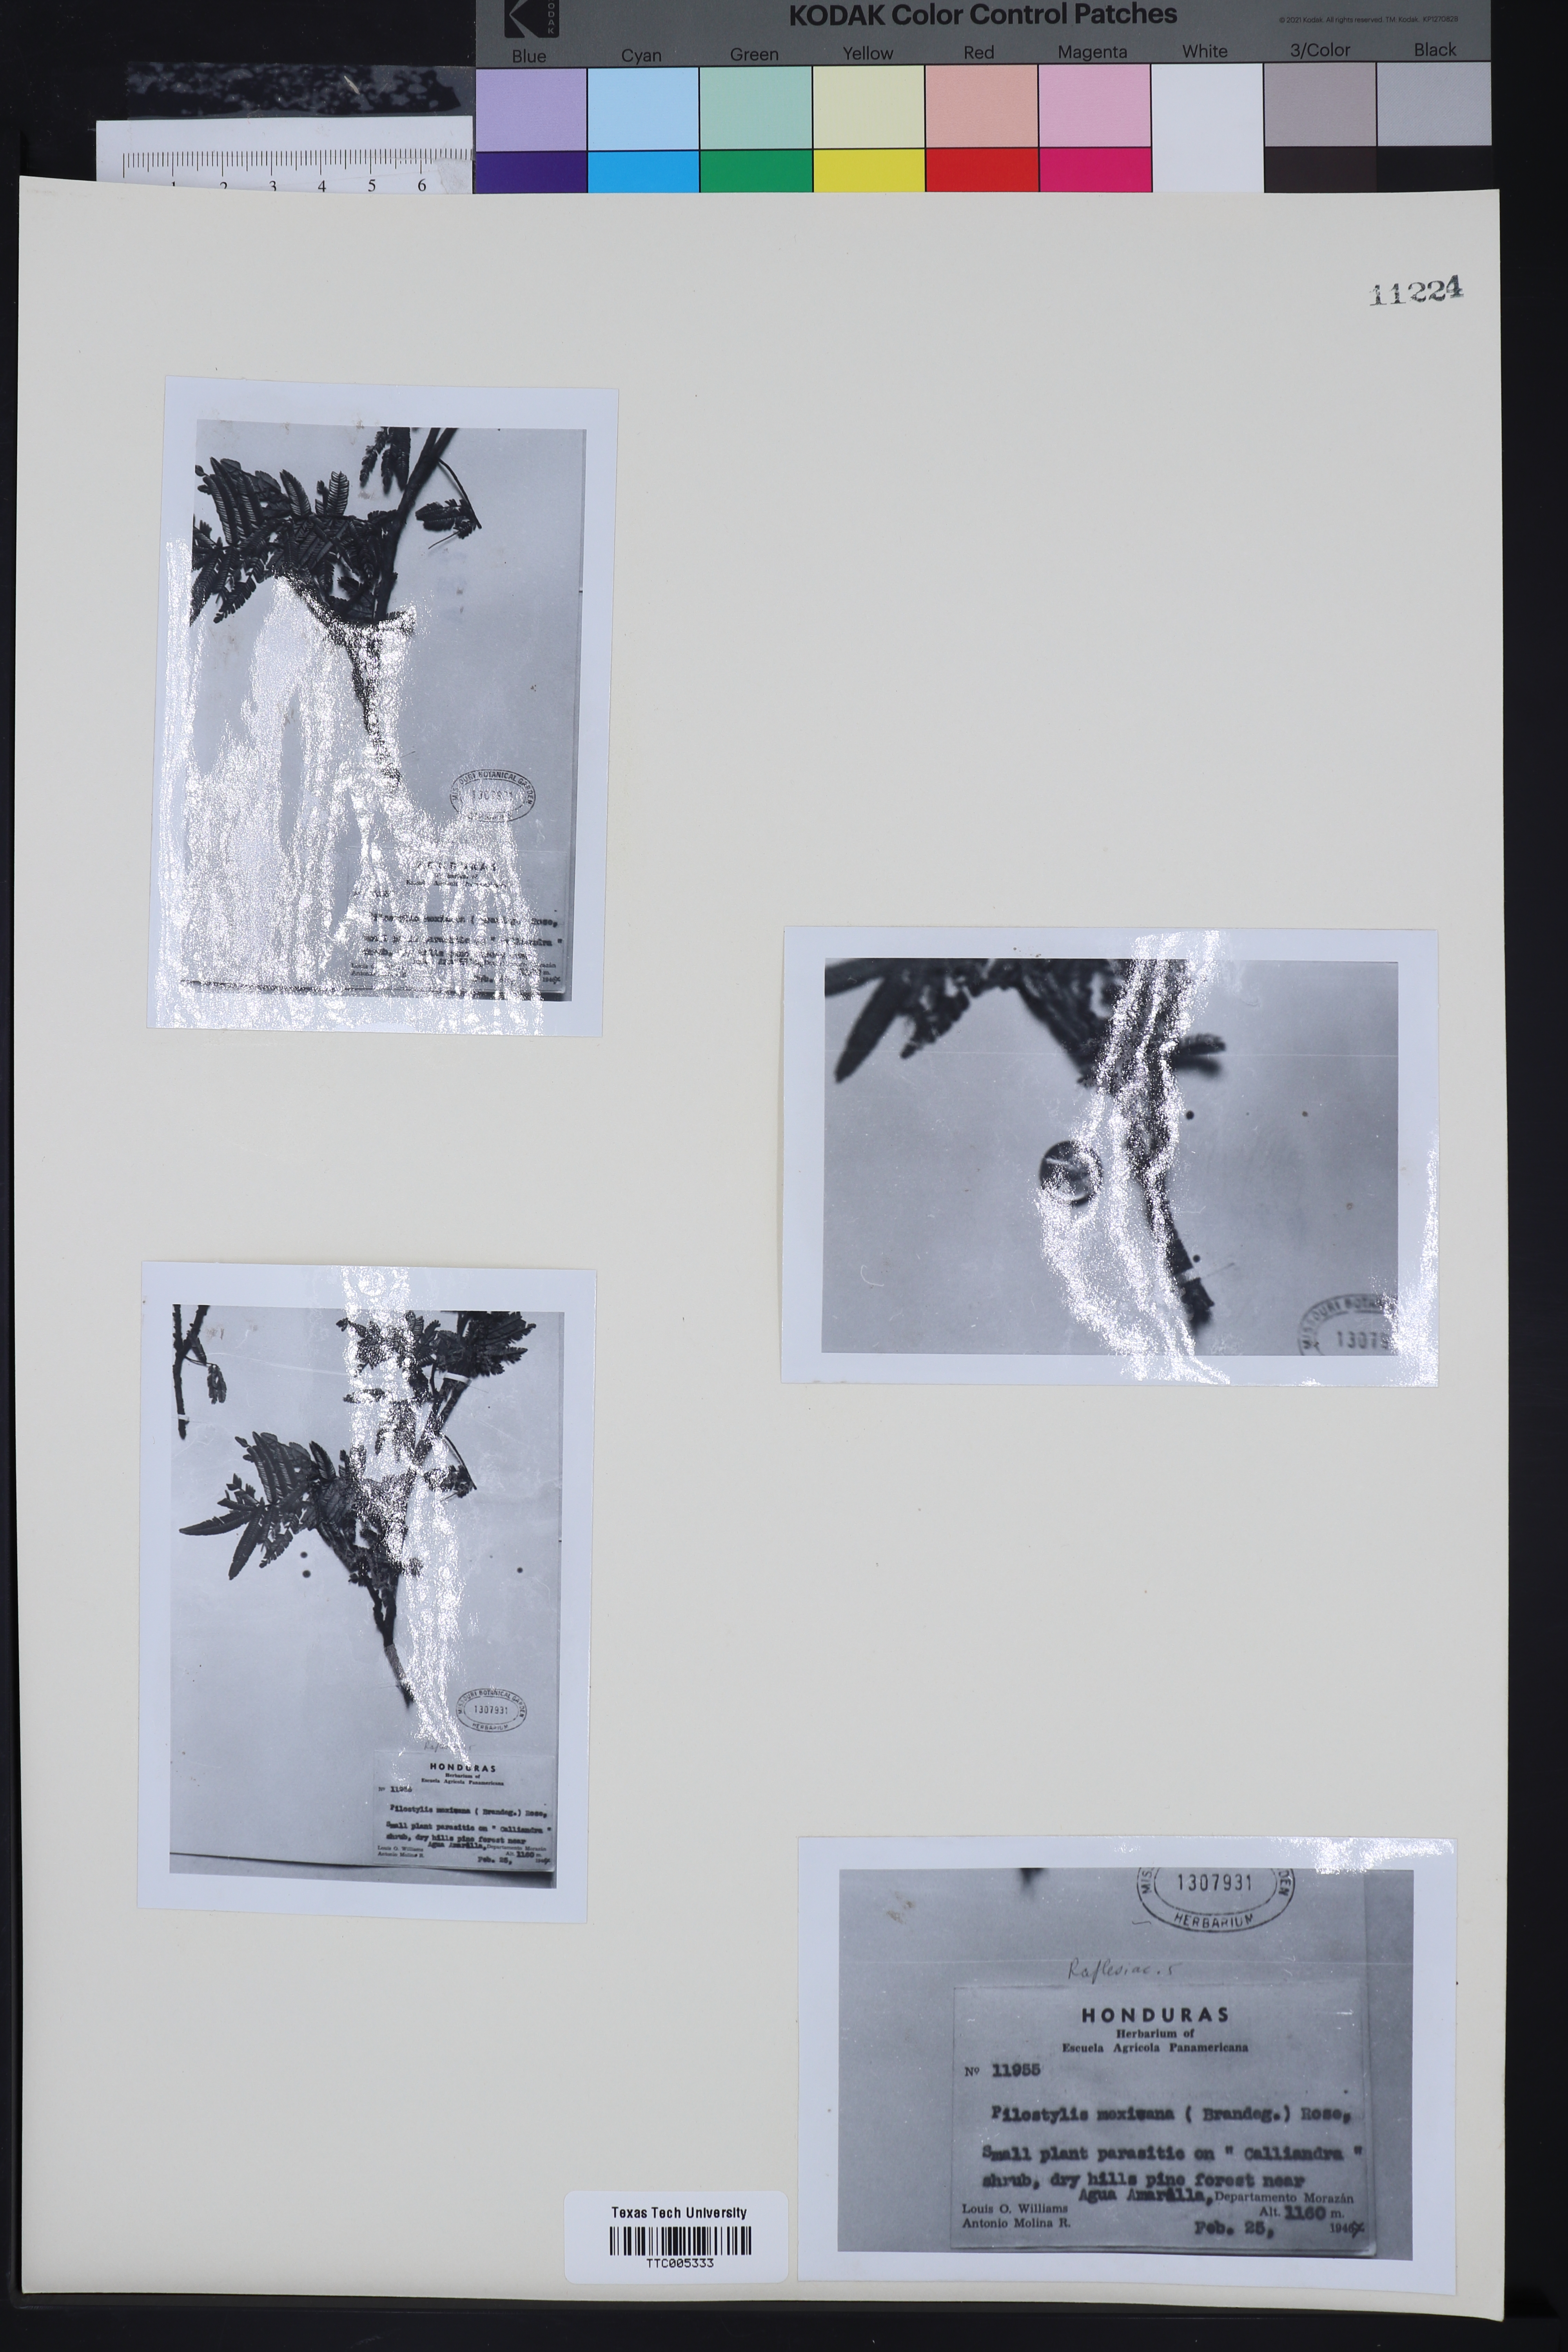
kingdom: Plantae
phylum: Tracheophyta
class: Magnoliopsida
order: Cucurbitales
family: Apodanthaceae
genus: Pilostyles
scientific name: Pilostyles mexicana
